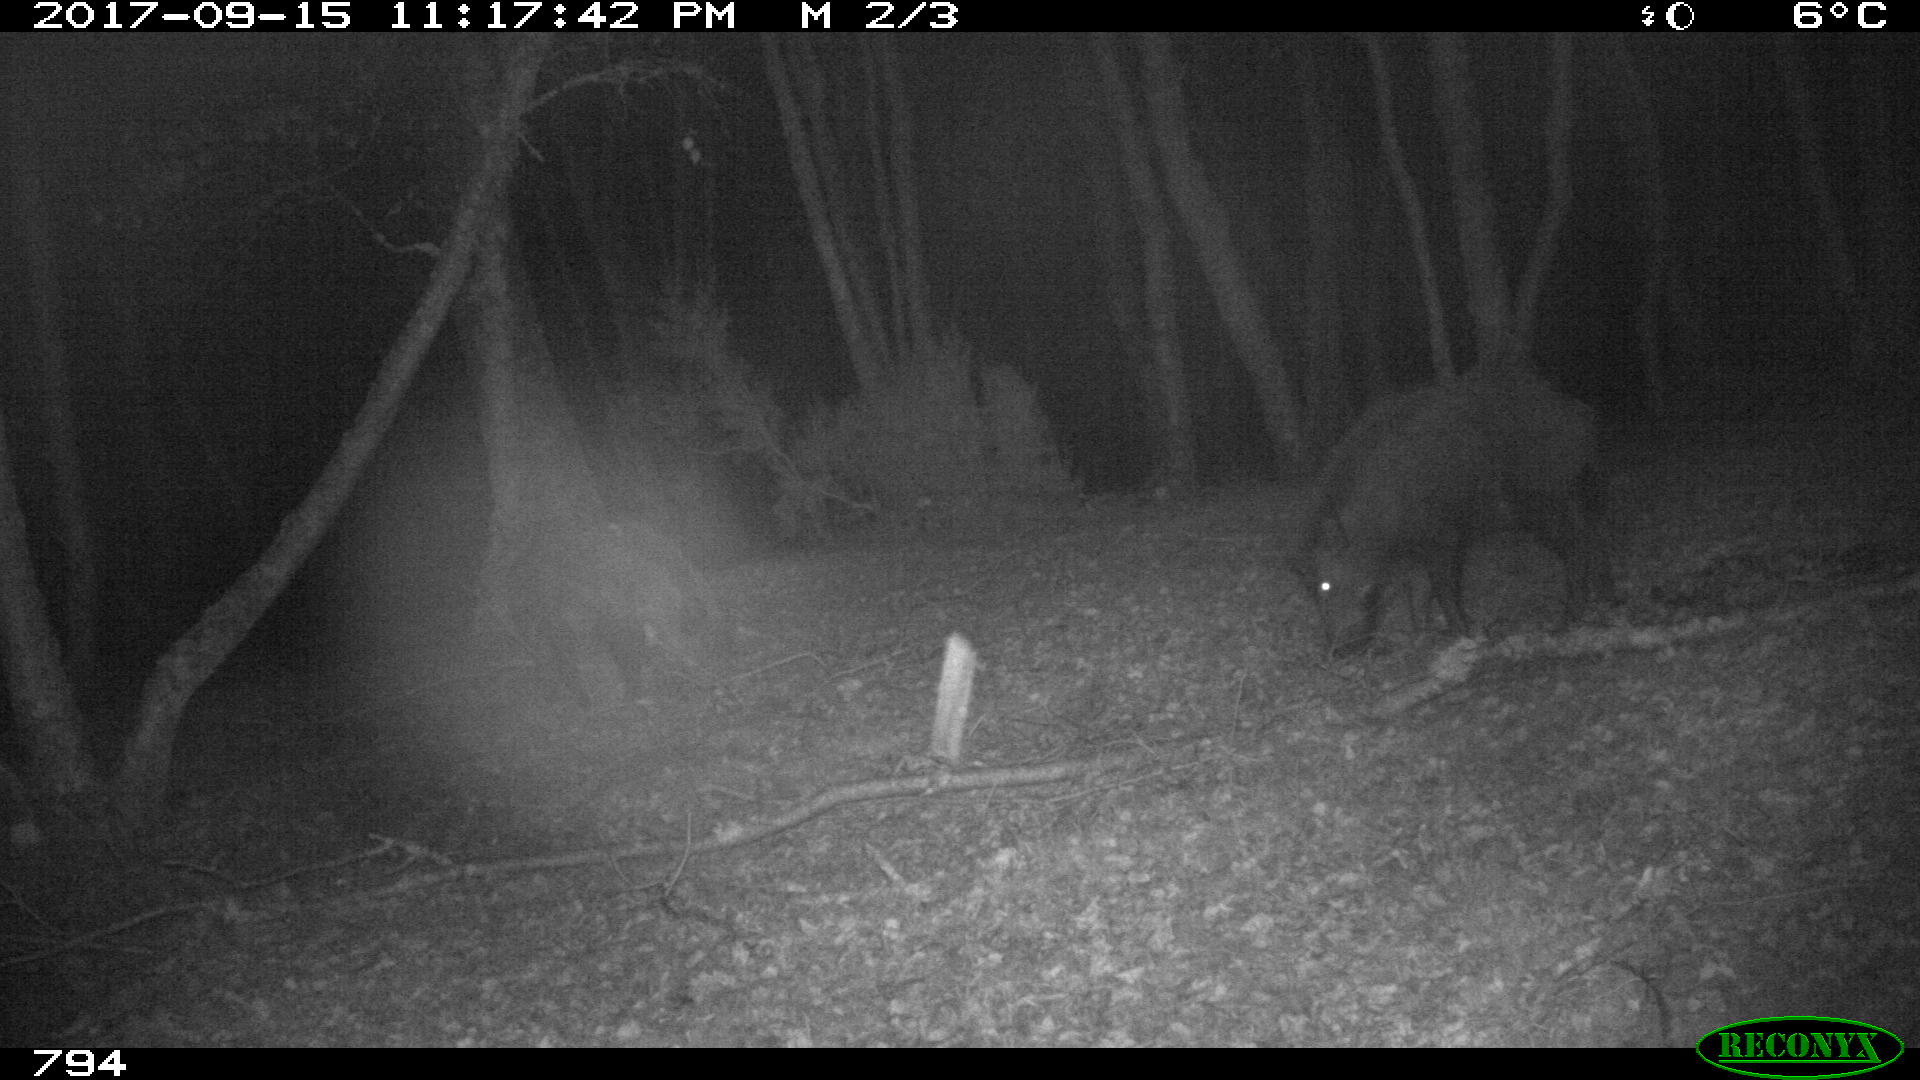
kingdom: Animalia
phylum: Chordata
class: Mammalia
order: Artiodactyla
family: Suidae
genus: Sus
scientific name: Sus scrofa
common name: Wild boar
